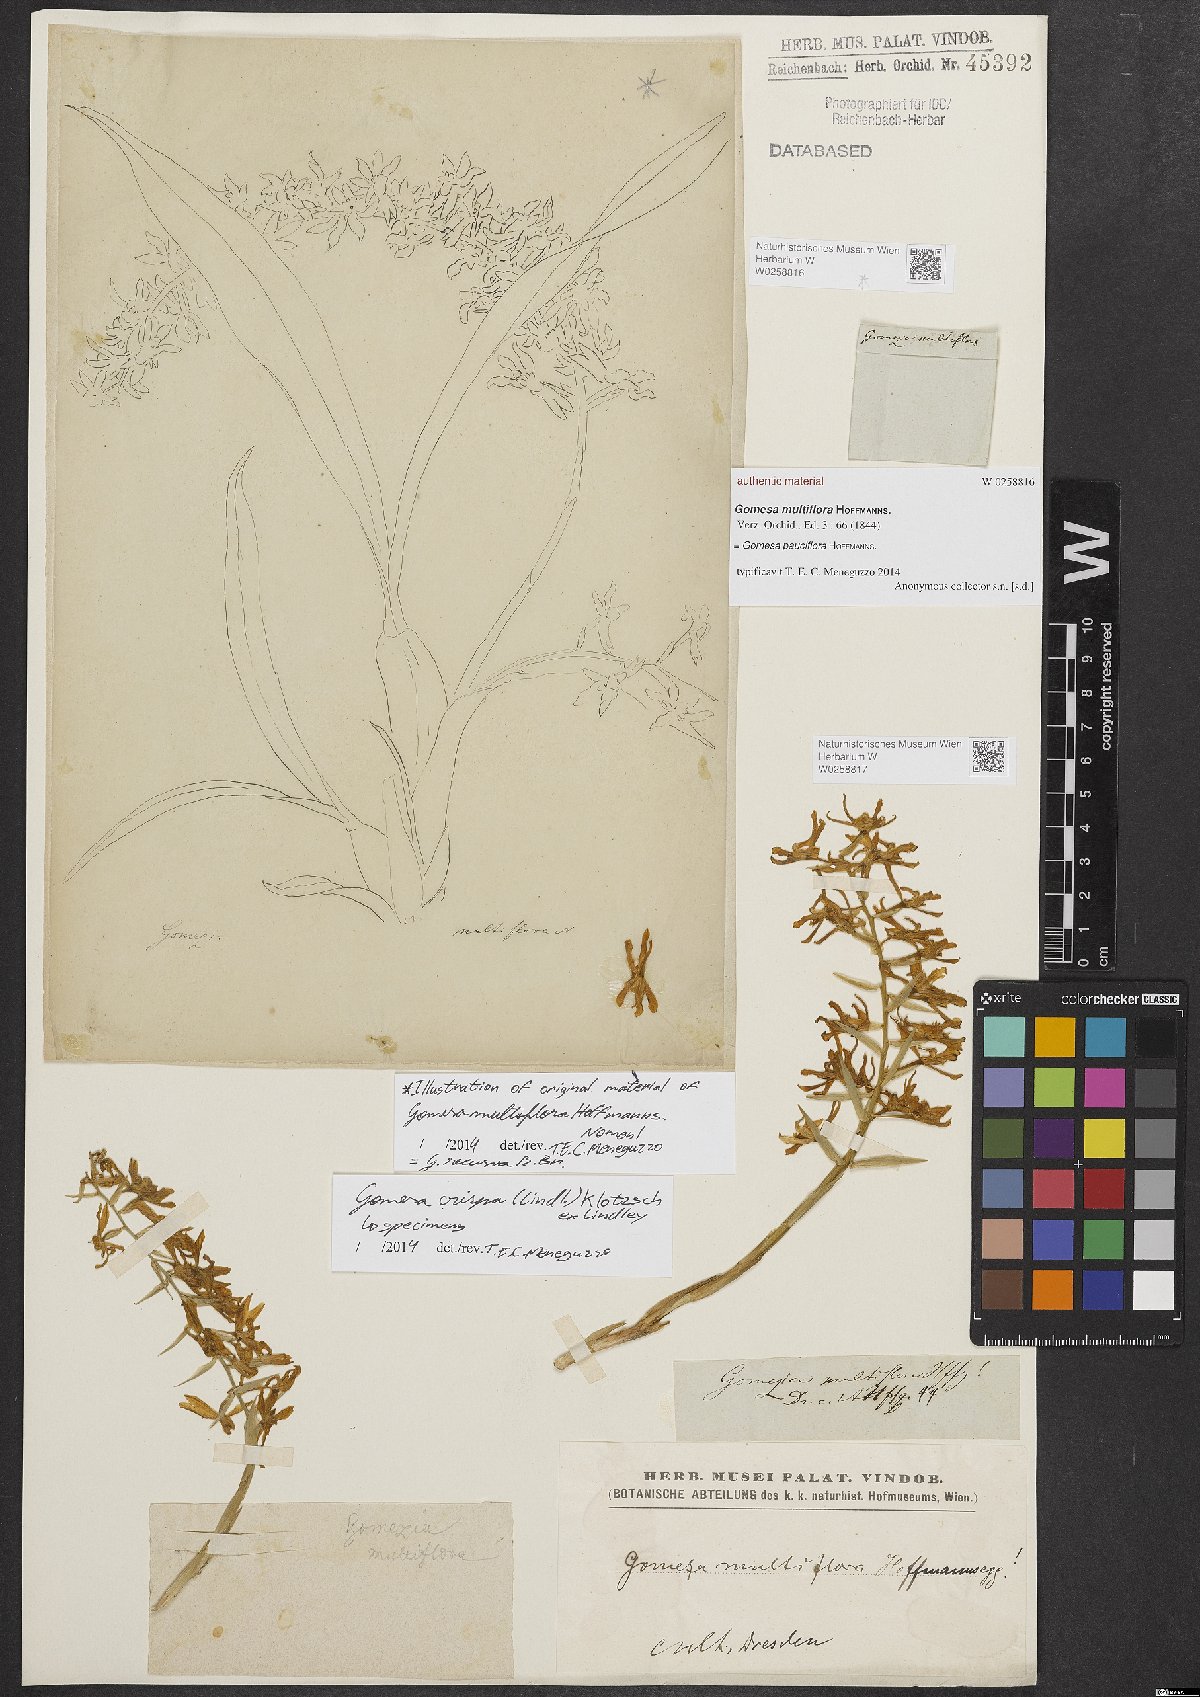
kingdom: Plantae
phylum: Tracheophyta
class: Liliopsida
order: Asparagales
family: Orchidaceae
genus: Gomesa
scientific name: Gomesa pauciflora
